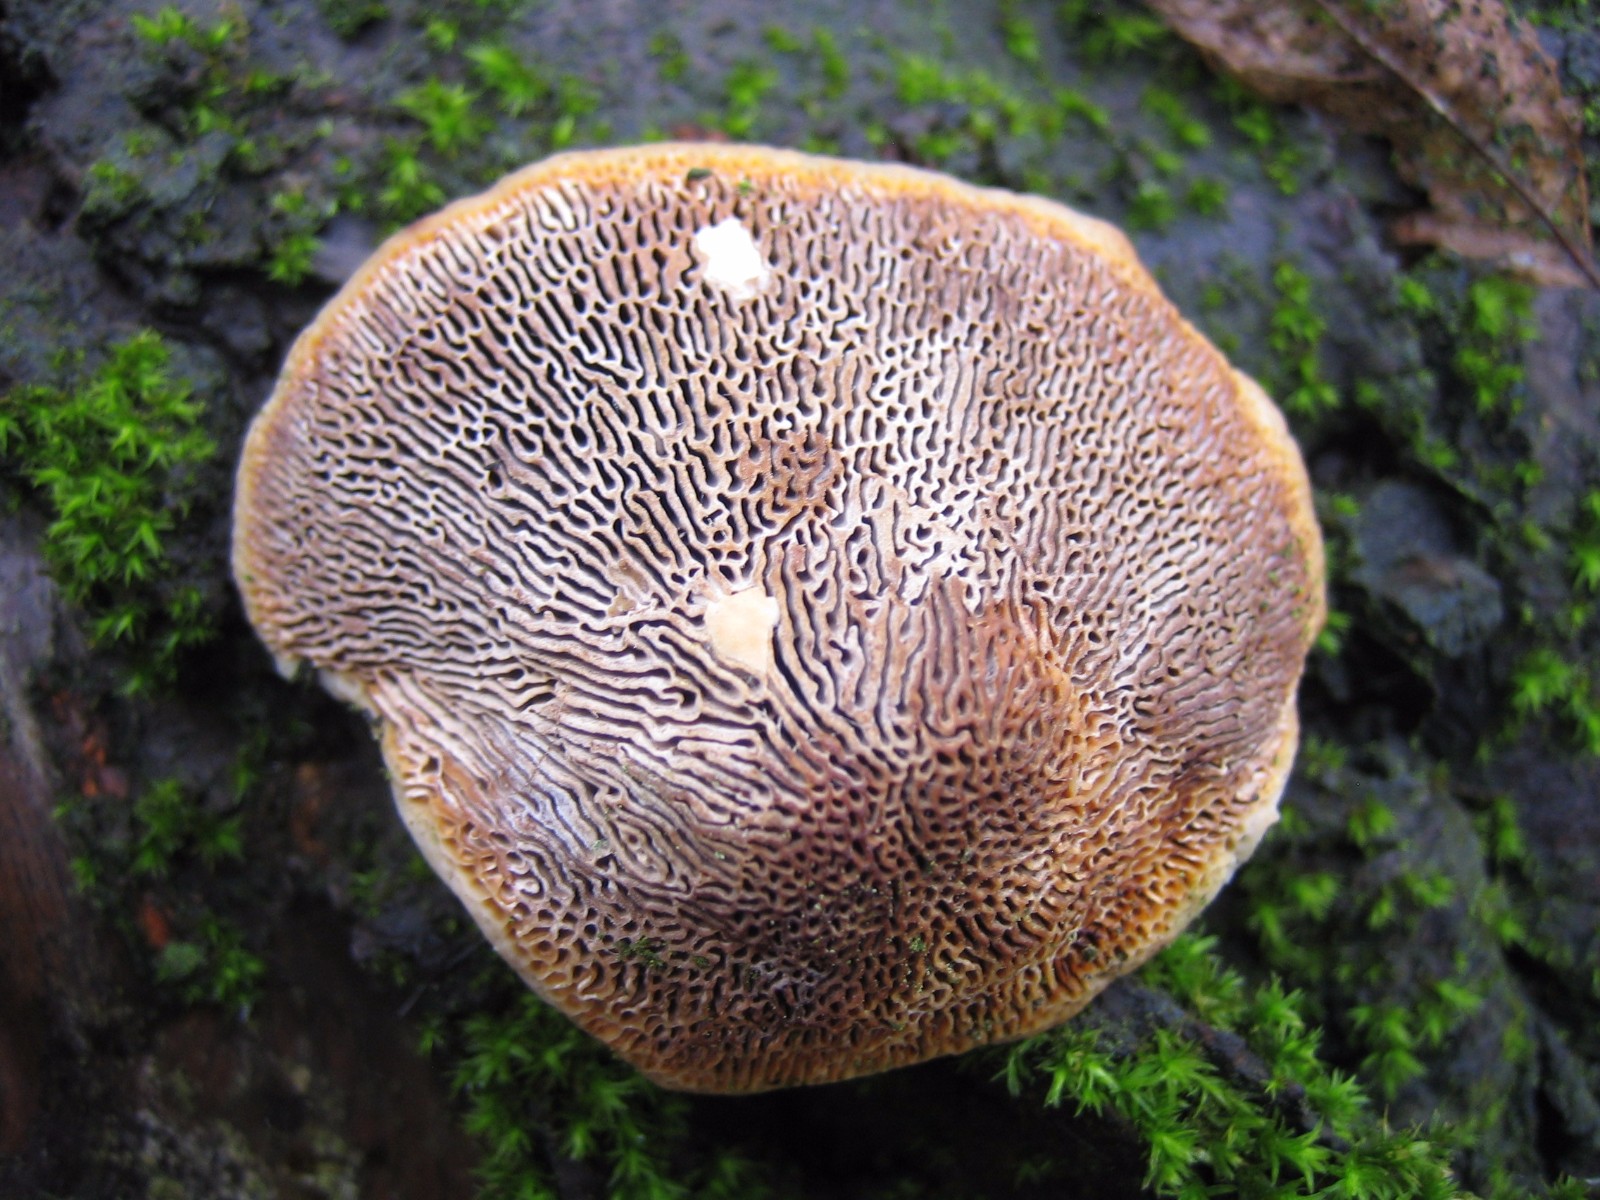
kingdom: Fungi
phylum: Basidiomycota
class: Agaricomycetes
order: Polyporales
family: Polyporaceae
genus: Daedaleopsis
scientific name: Daedaleopsis confragosa
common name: rødmende læderporesvamp
